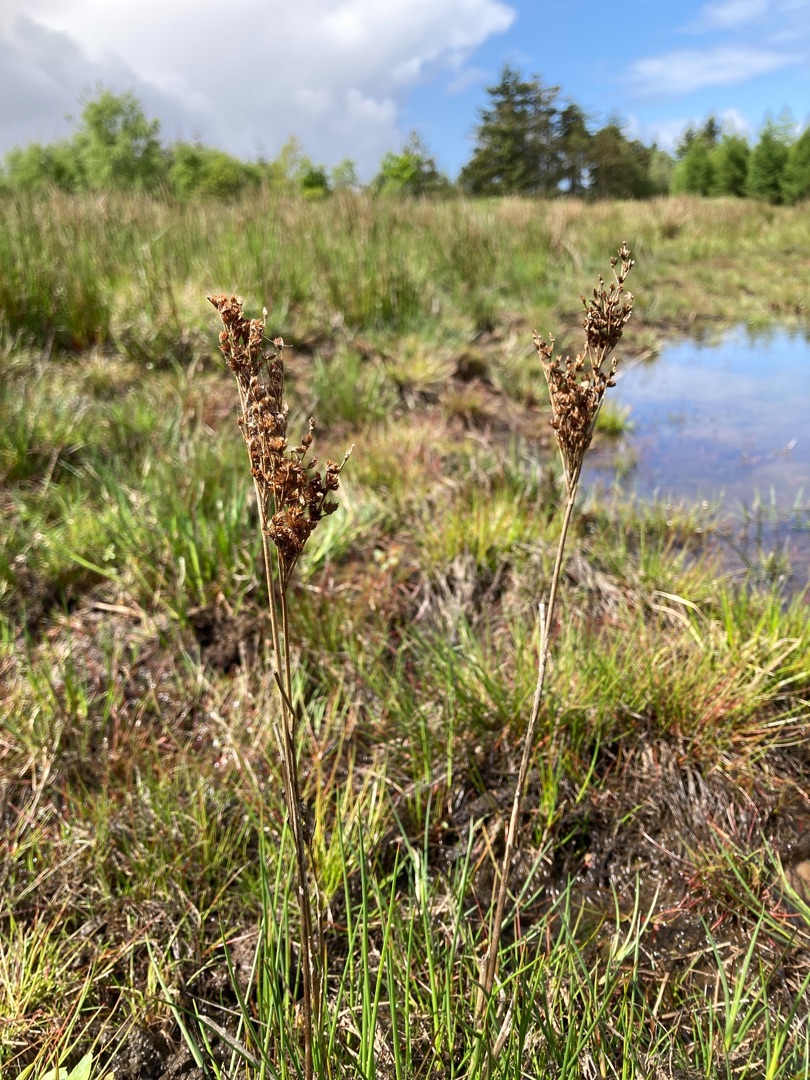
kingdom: Plantae
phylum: Tracheophyta
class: Liliopsida
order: Poales
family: Juncaceae
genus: Juncus
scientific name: Juncus anceps
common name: Sand-siv
